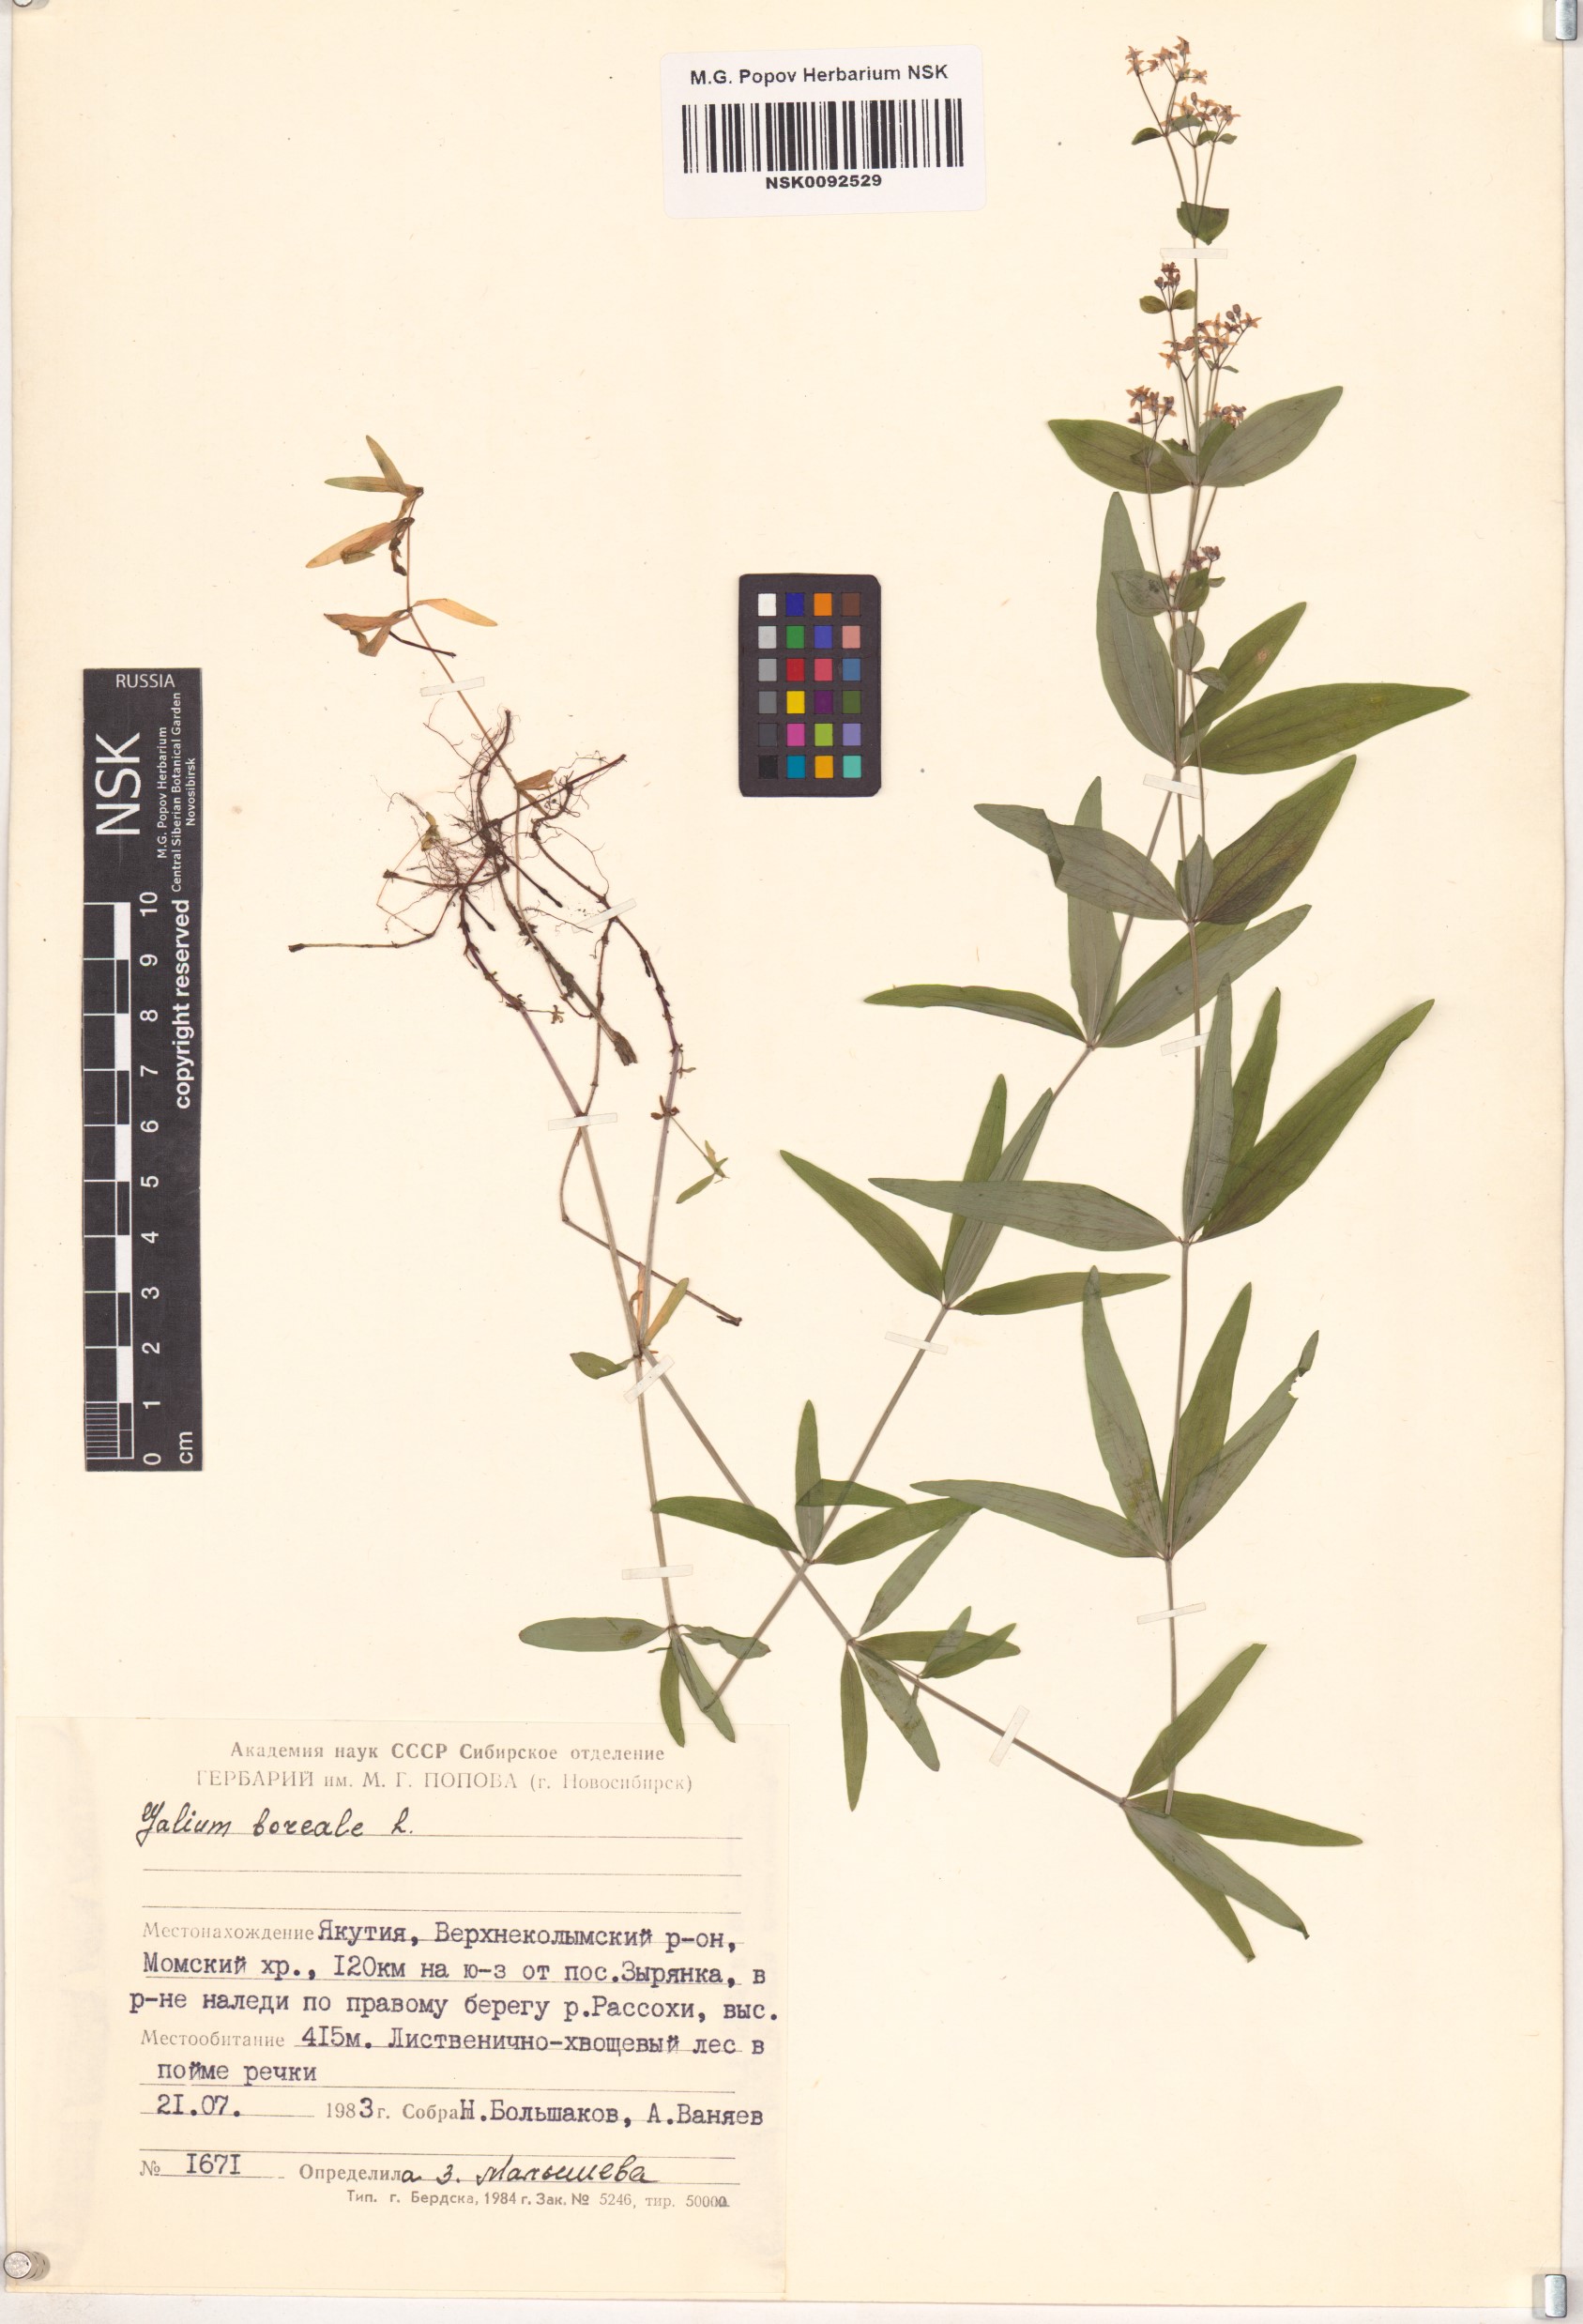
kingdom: Plantae
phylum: Tracheophyta
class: Magnoliopsida
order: Gentianales
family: Rubiaceae
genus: Galium
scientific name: Galium boreale
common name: Northern bedstraw
